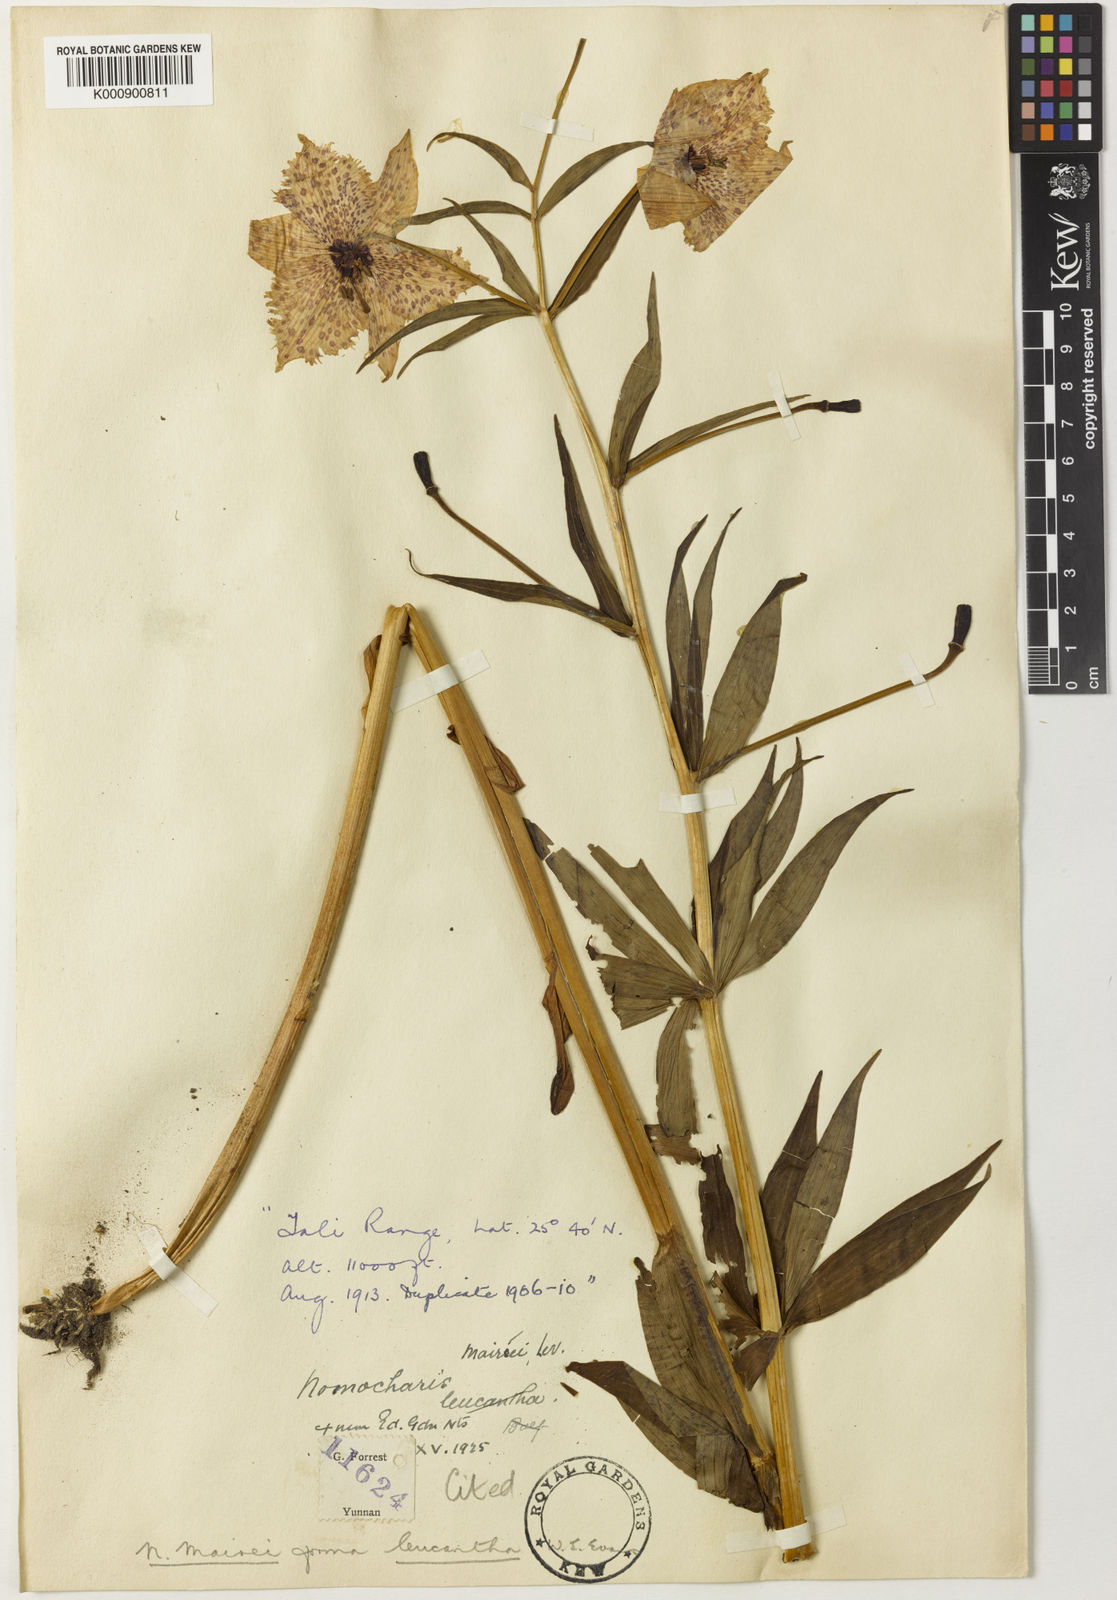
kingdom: Plantae
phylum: Tracheophyta
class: Liliopsida
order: Liliales
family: Liliaceae
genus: Lilium
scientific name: Lilium pardanthinum
